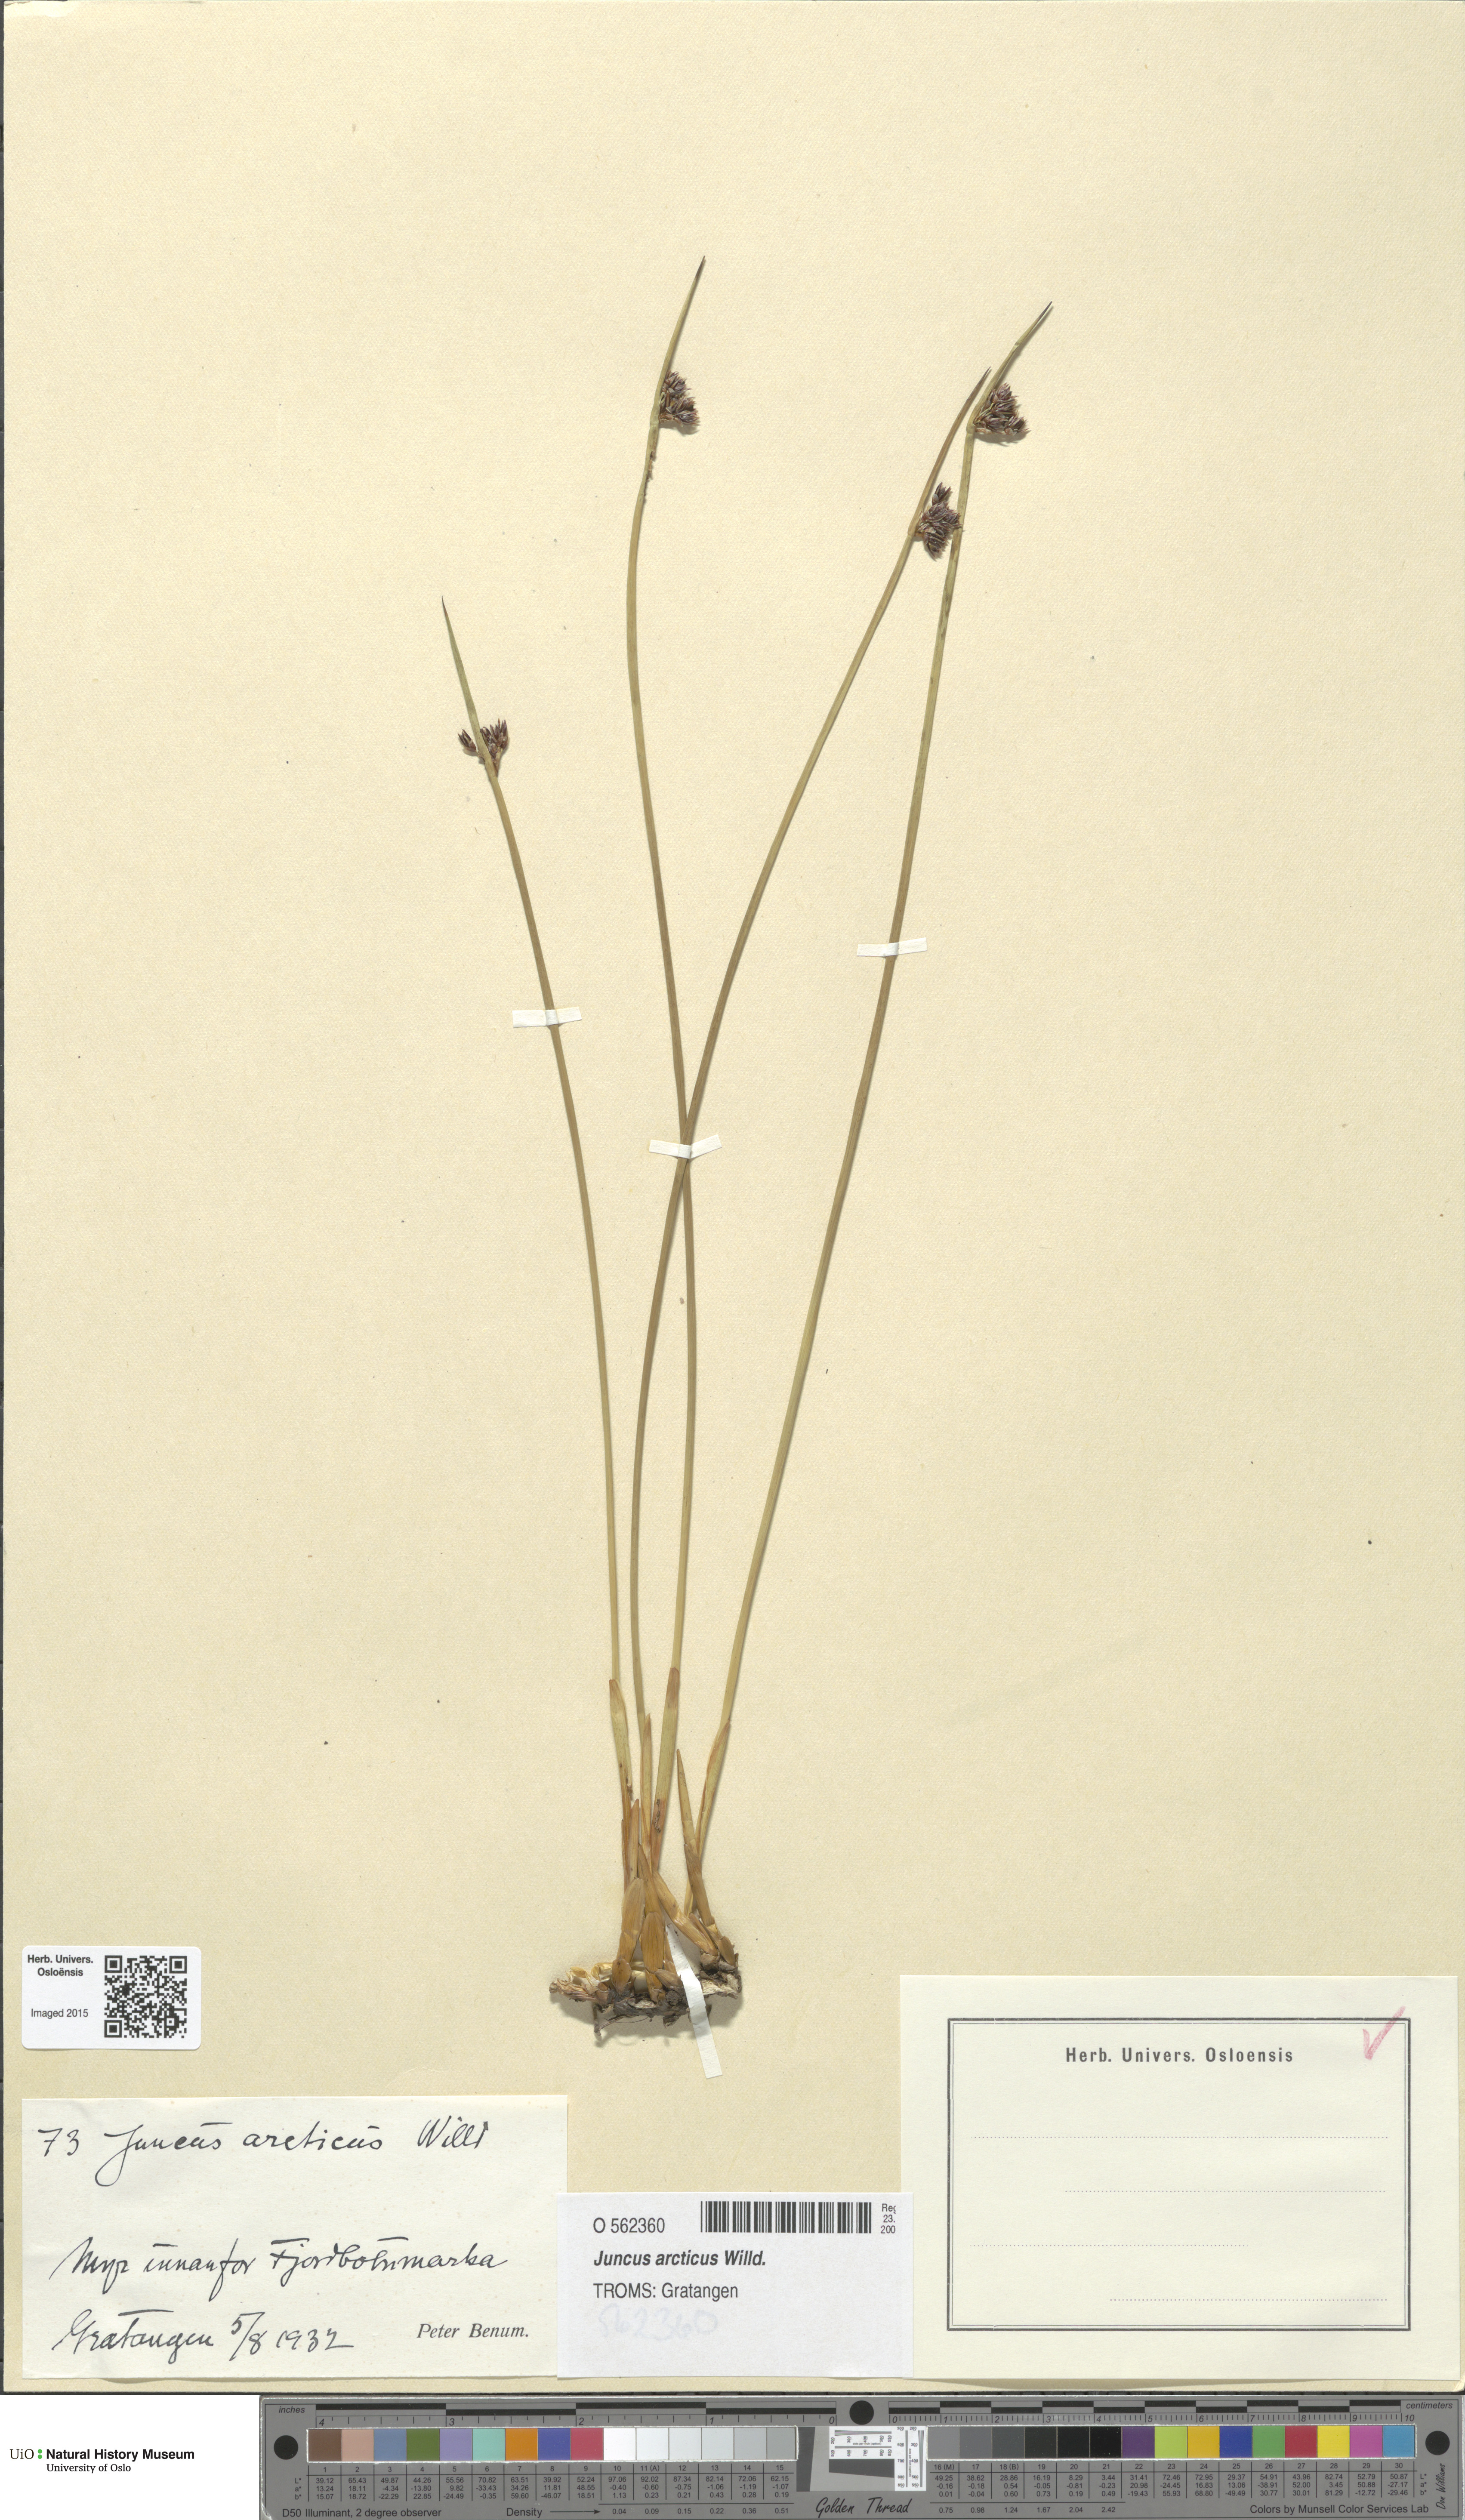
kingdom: Plantae
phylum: Tracheophyta
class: Liliopsida
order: Poales
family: Juncaceae
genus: Juncus
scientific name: Juncus arcticus
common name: Arctic rush
